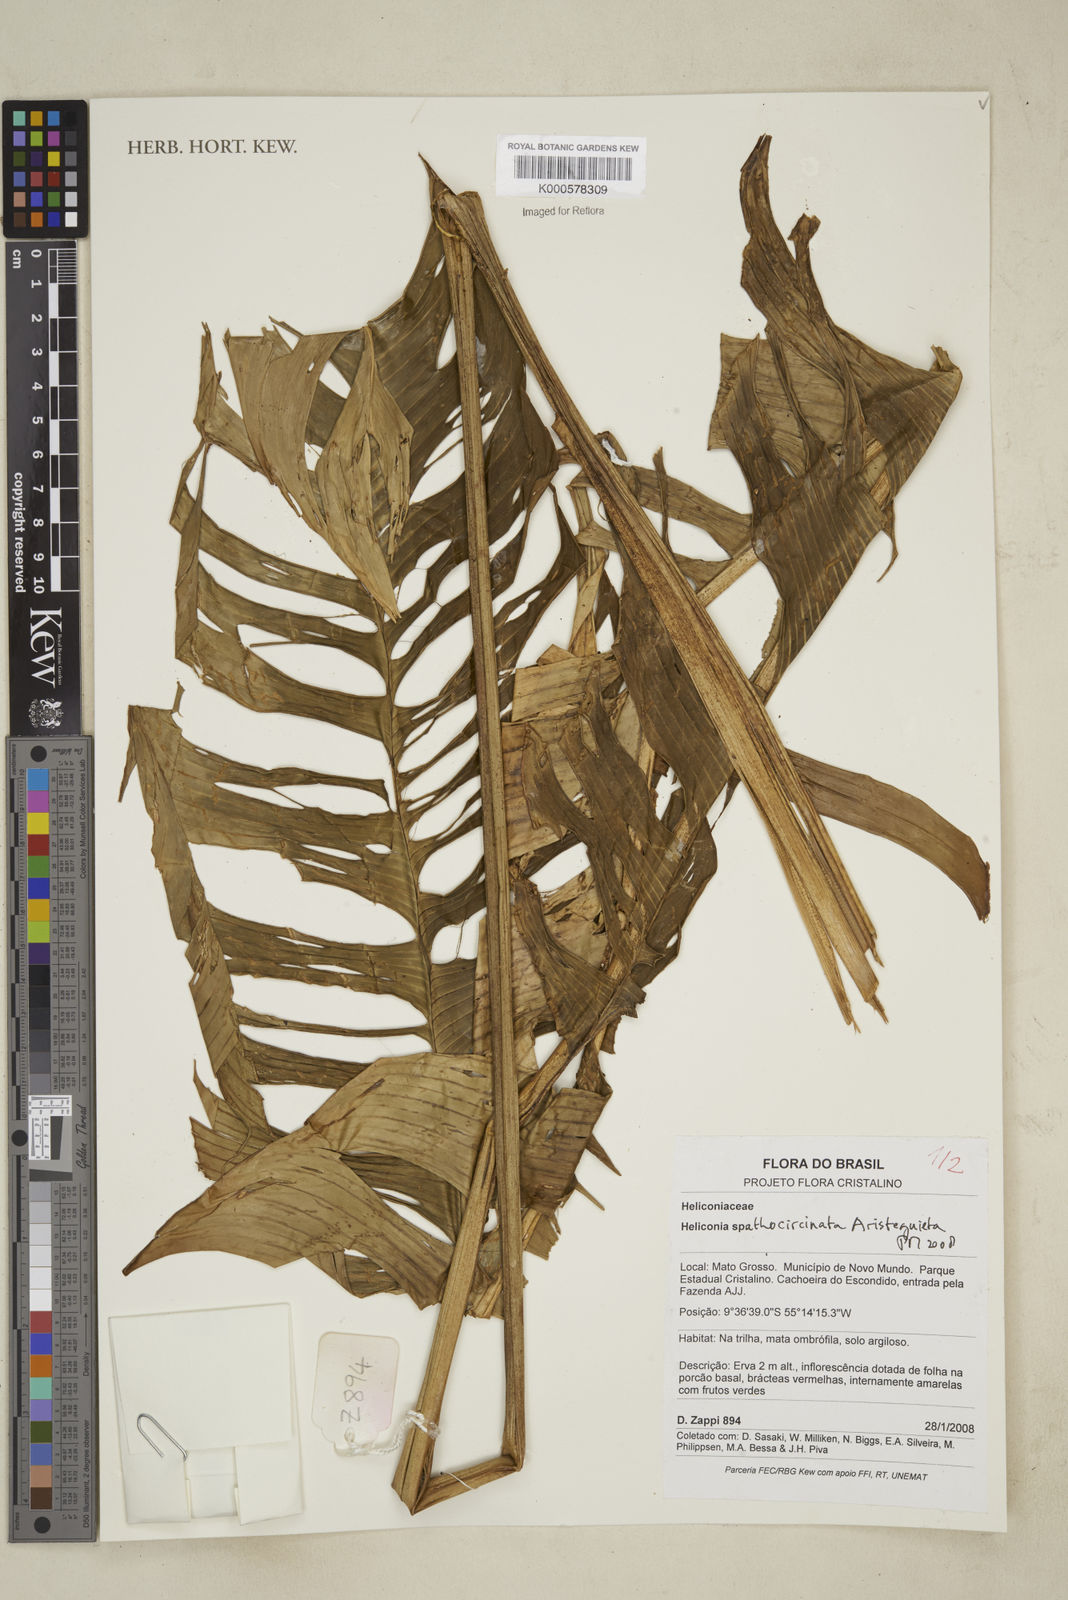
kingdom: Plantae
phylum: Tracheophyta
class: Liliopsida
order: Zingiberales
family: Heliconiaceae
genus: Heliconia
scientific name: Heliconia spathocircinata
